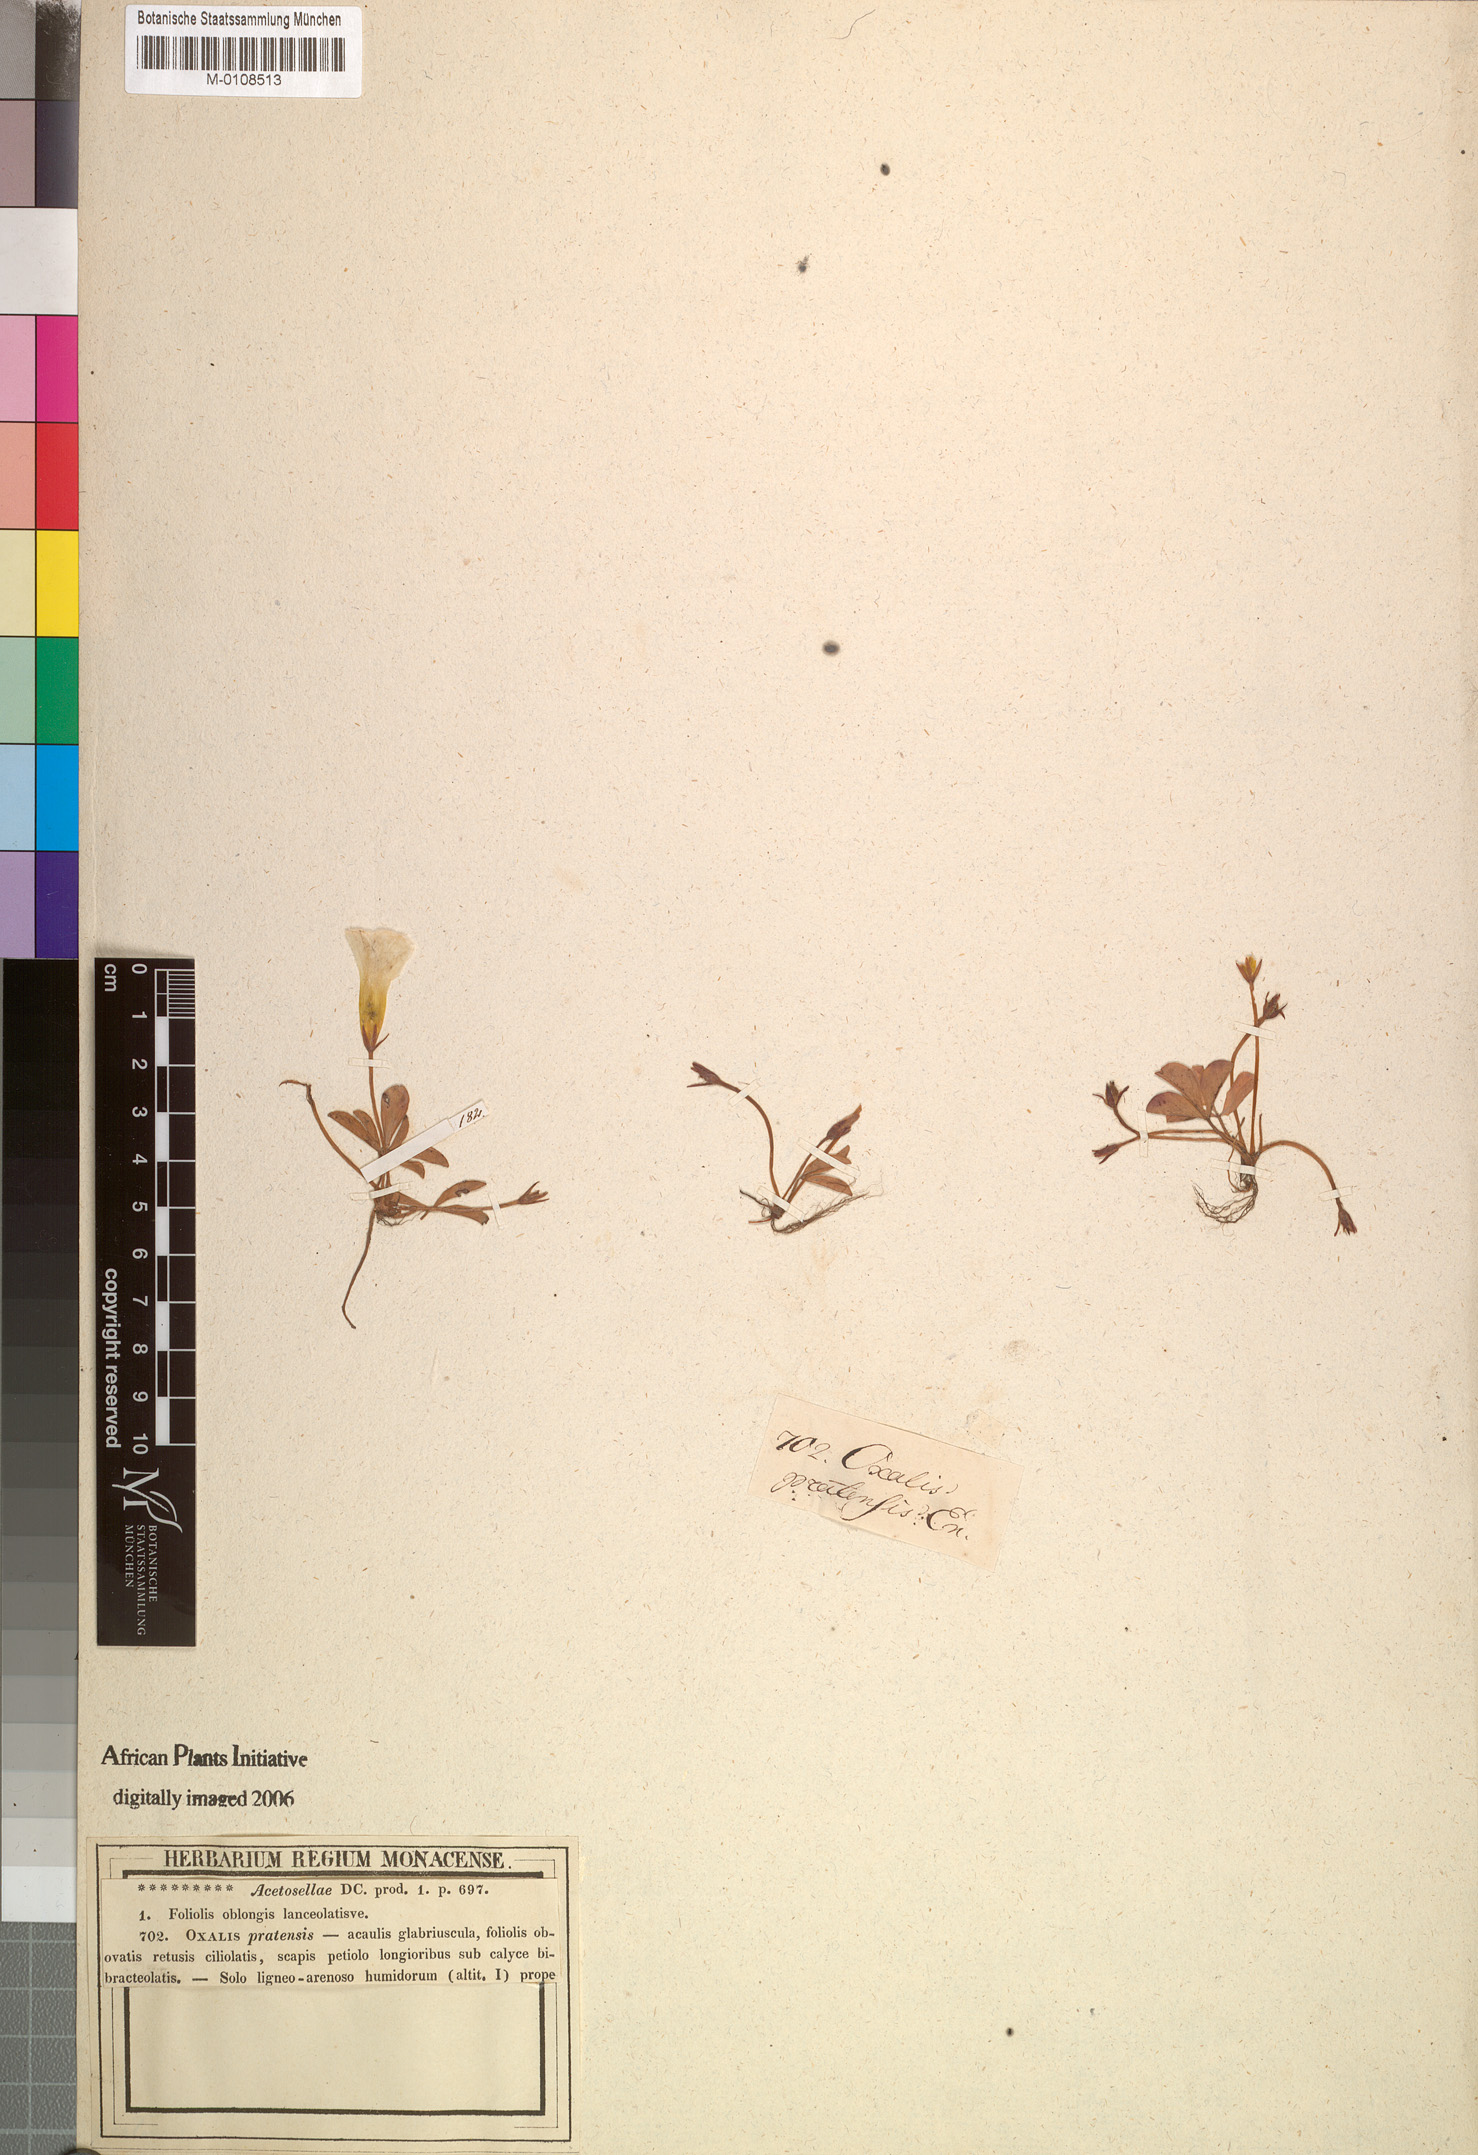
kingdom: Plantae
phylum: Tracheophyta
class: Magnoliopsida
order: Oxalidales
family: Oxalidaceae
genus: Oxalis
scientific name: Oxalis minuta
